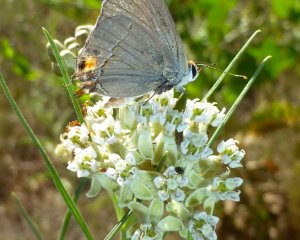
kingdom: Animalia
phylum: Arthropoda
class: Insecta
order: Lepidoptera
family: Lycaenidae
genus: Strymon
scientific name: Strymon melinus
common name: Gray Hairstreak
